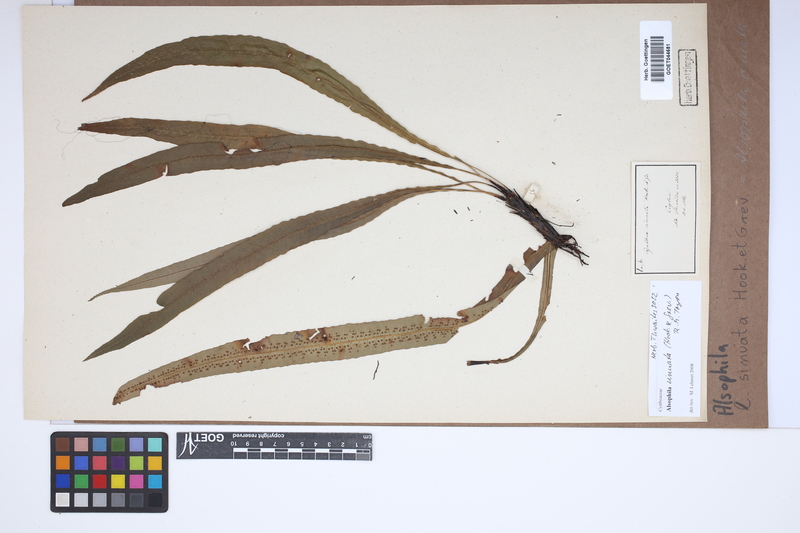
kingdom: Plantae
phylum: Tracheophyta
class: Polypodiopsida
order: Cyatheales
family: Cyatheaceae
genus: Alsophila
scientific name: Alsophila sinuata
